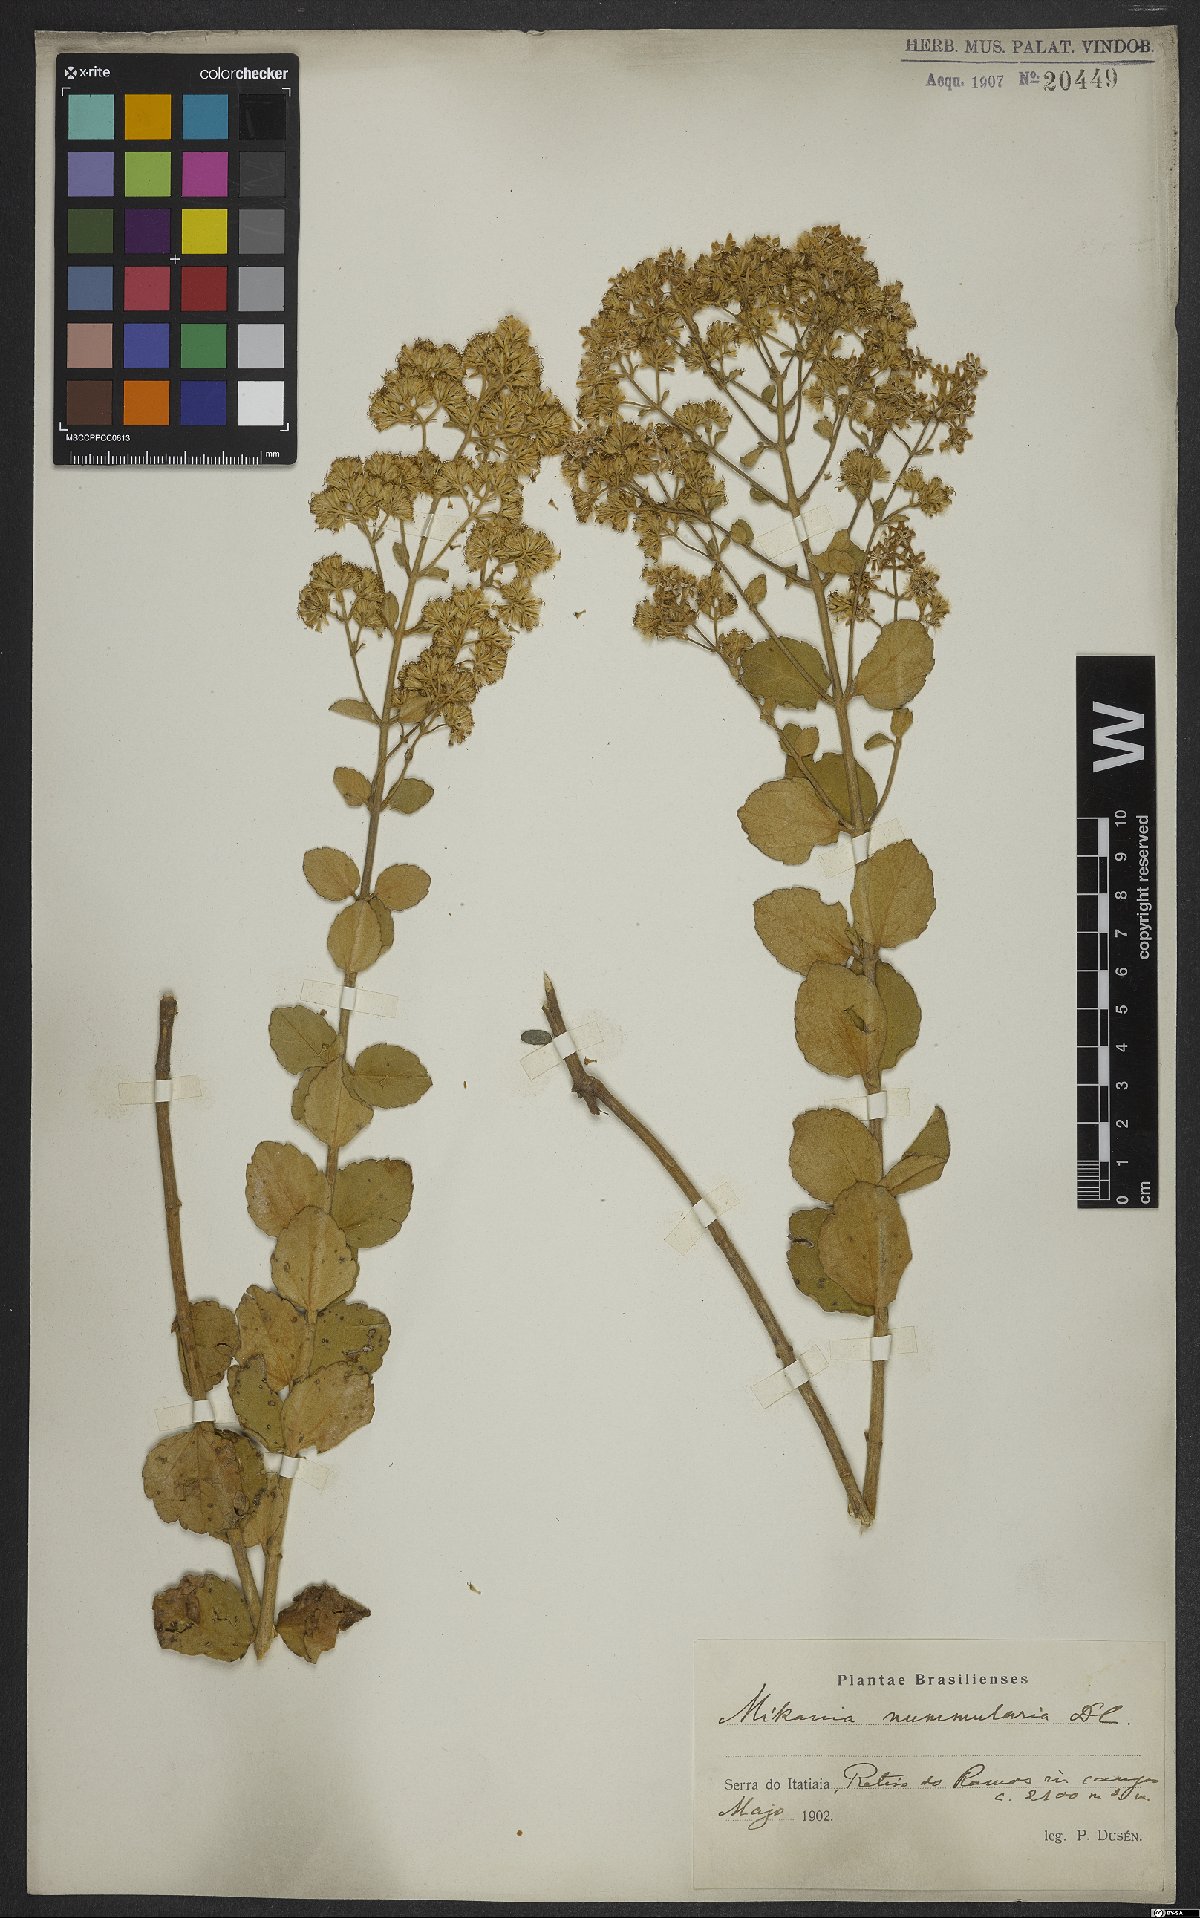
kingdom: Plantae
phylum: Tracheophyta
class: Magnoliopsida
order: Asterales
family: Asteraceae
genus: Mikania
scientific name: Mikania nummularia
